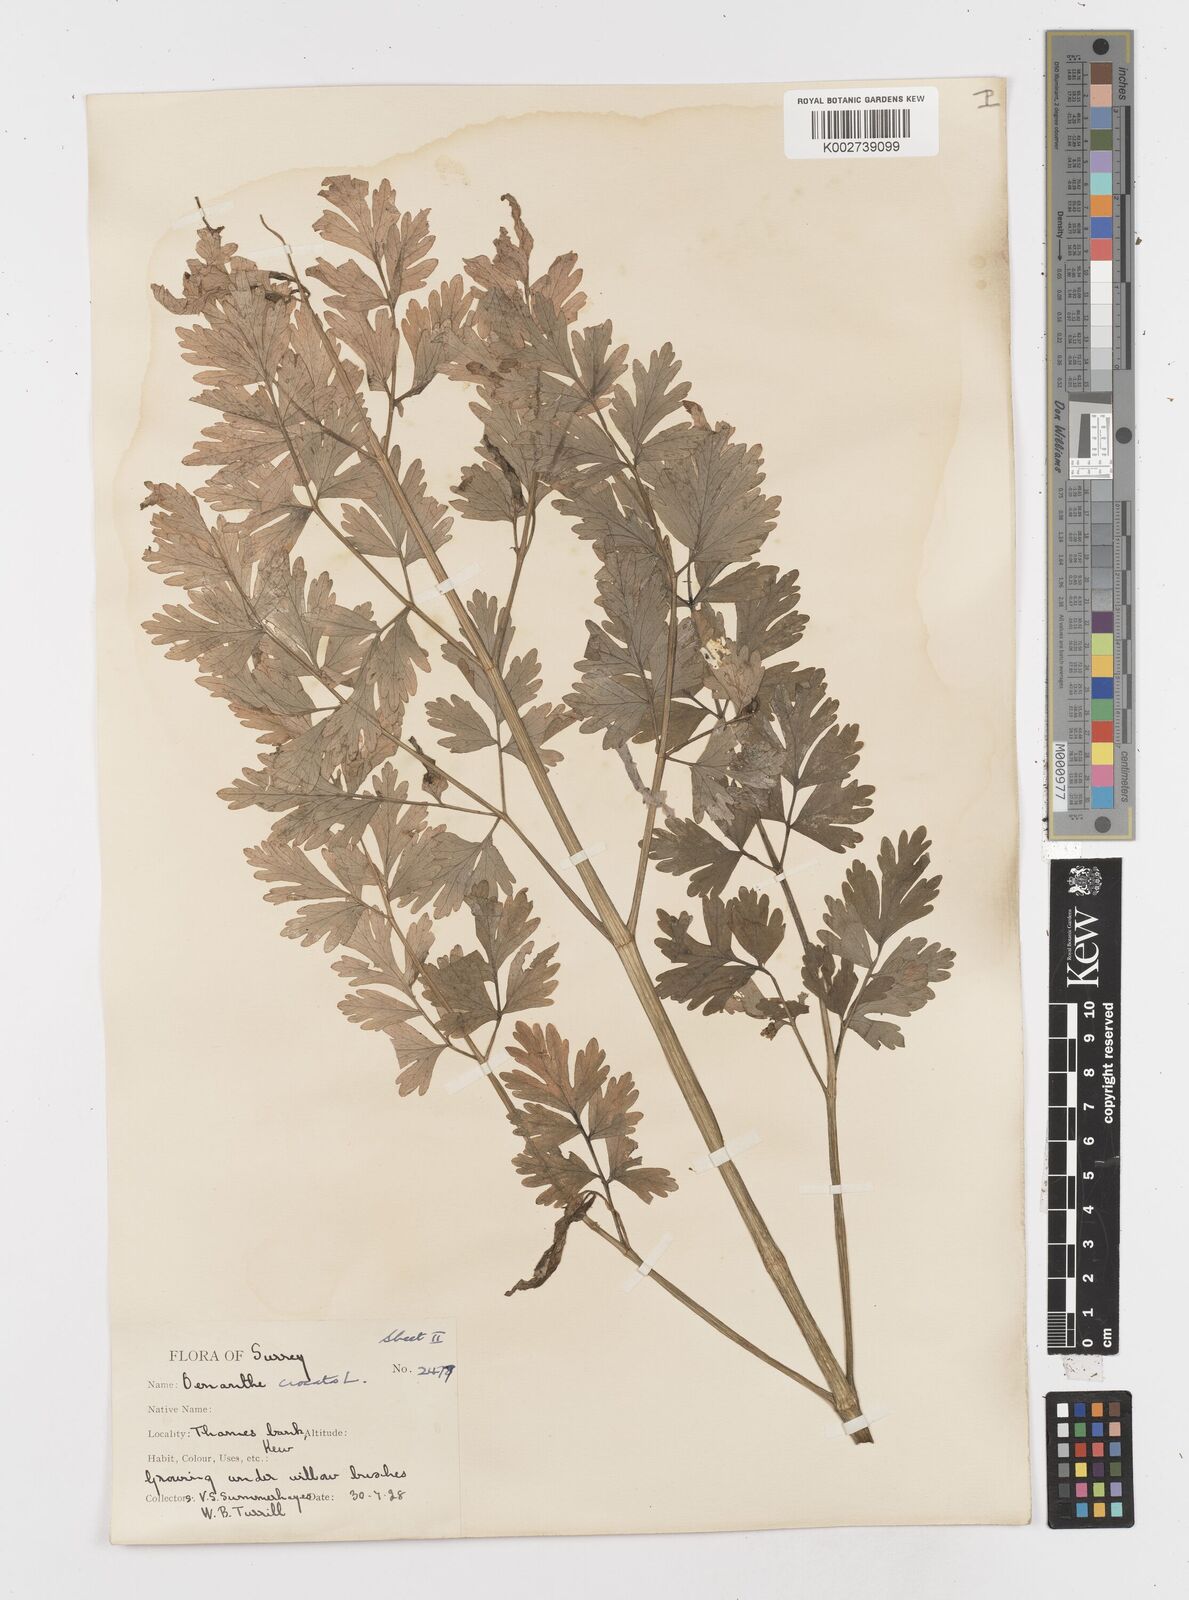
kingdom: Plantae
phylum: Tracheophyta
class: Magnoliopsida
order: Apiales
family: Apiaceae
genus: Oenanthe
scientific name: Oenanthe crocata
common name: Hemlock water-dropwort
